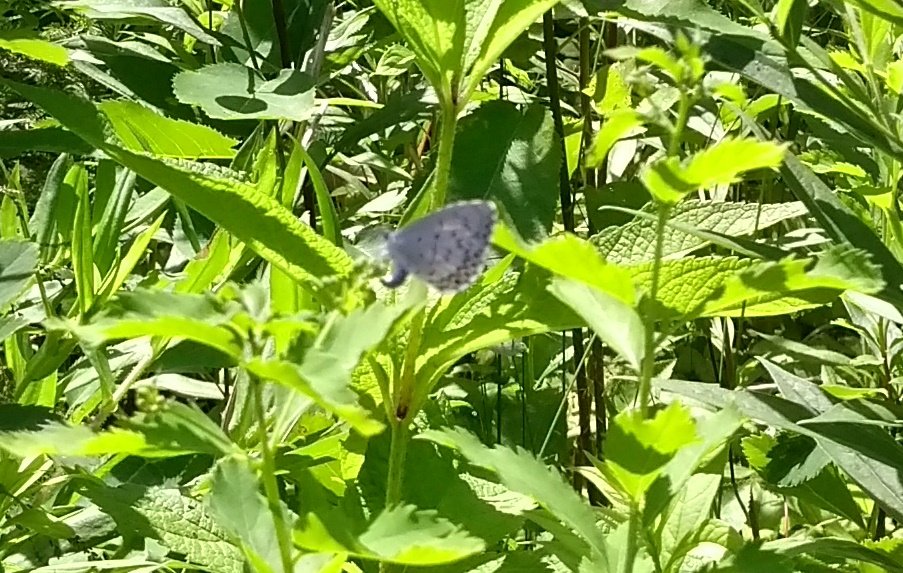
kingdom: Animalia
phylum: Arthropoda
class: Insecta
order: Lepidoptera
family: Lycaenidae
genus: Celastrina
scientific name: Celastrina
